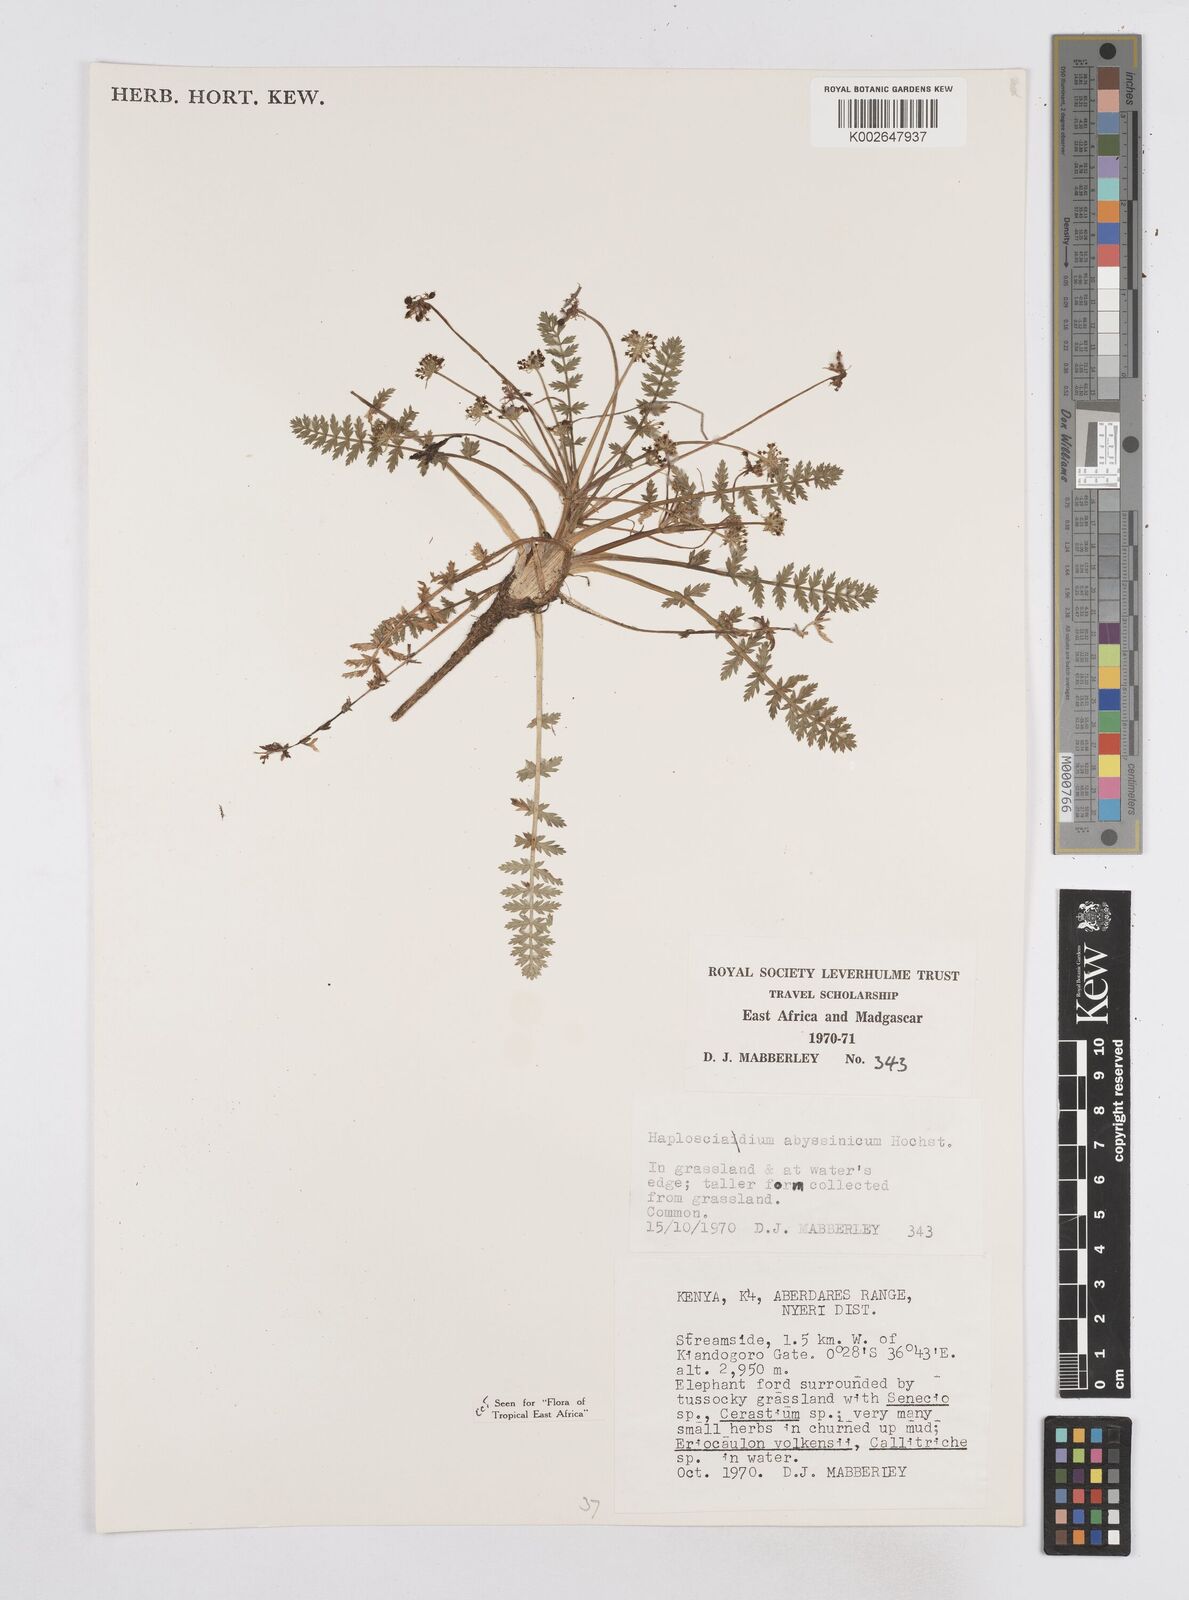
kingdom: Plantae
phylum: Tracheophyta
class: Magnoliopsida
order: Apiales
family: Apiaceae
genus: Haplosciadium
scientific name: Haplosciadium abyssinicum
